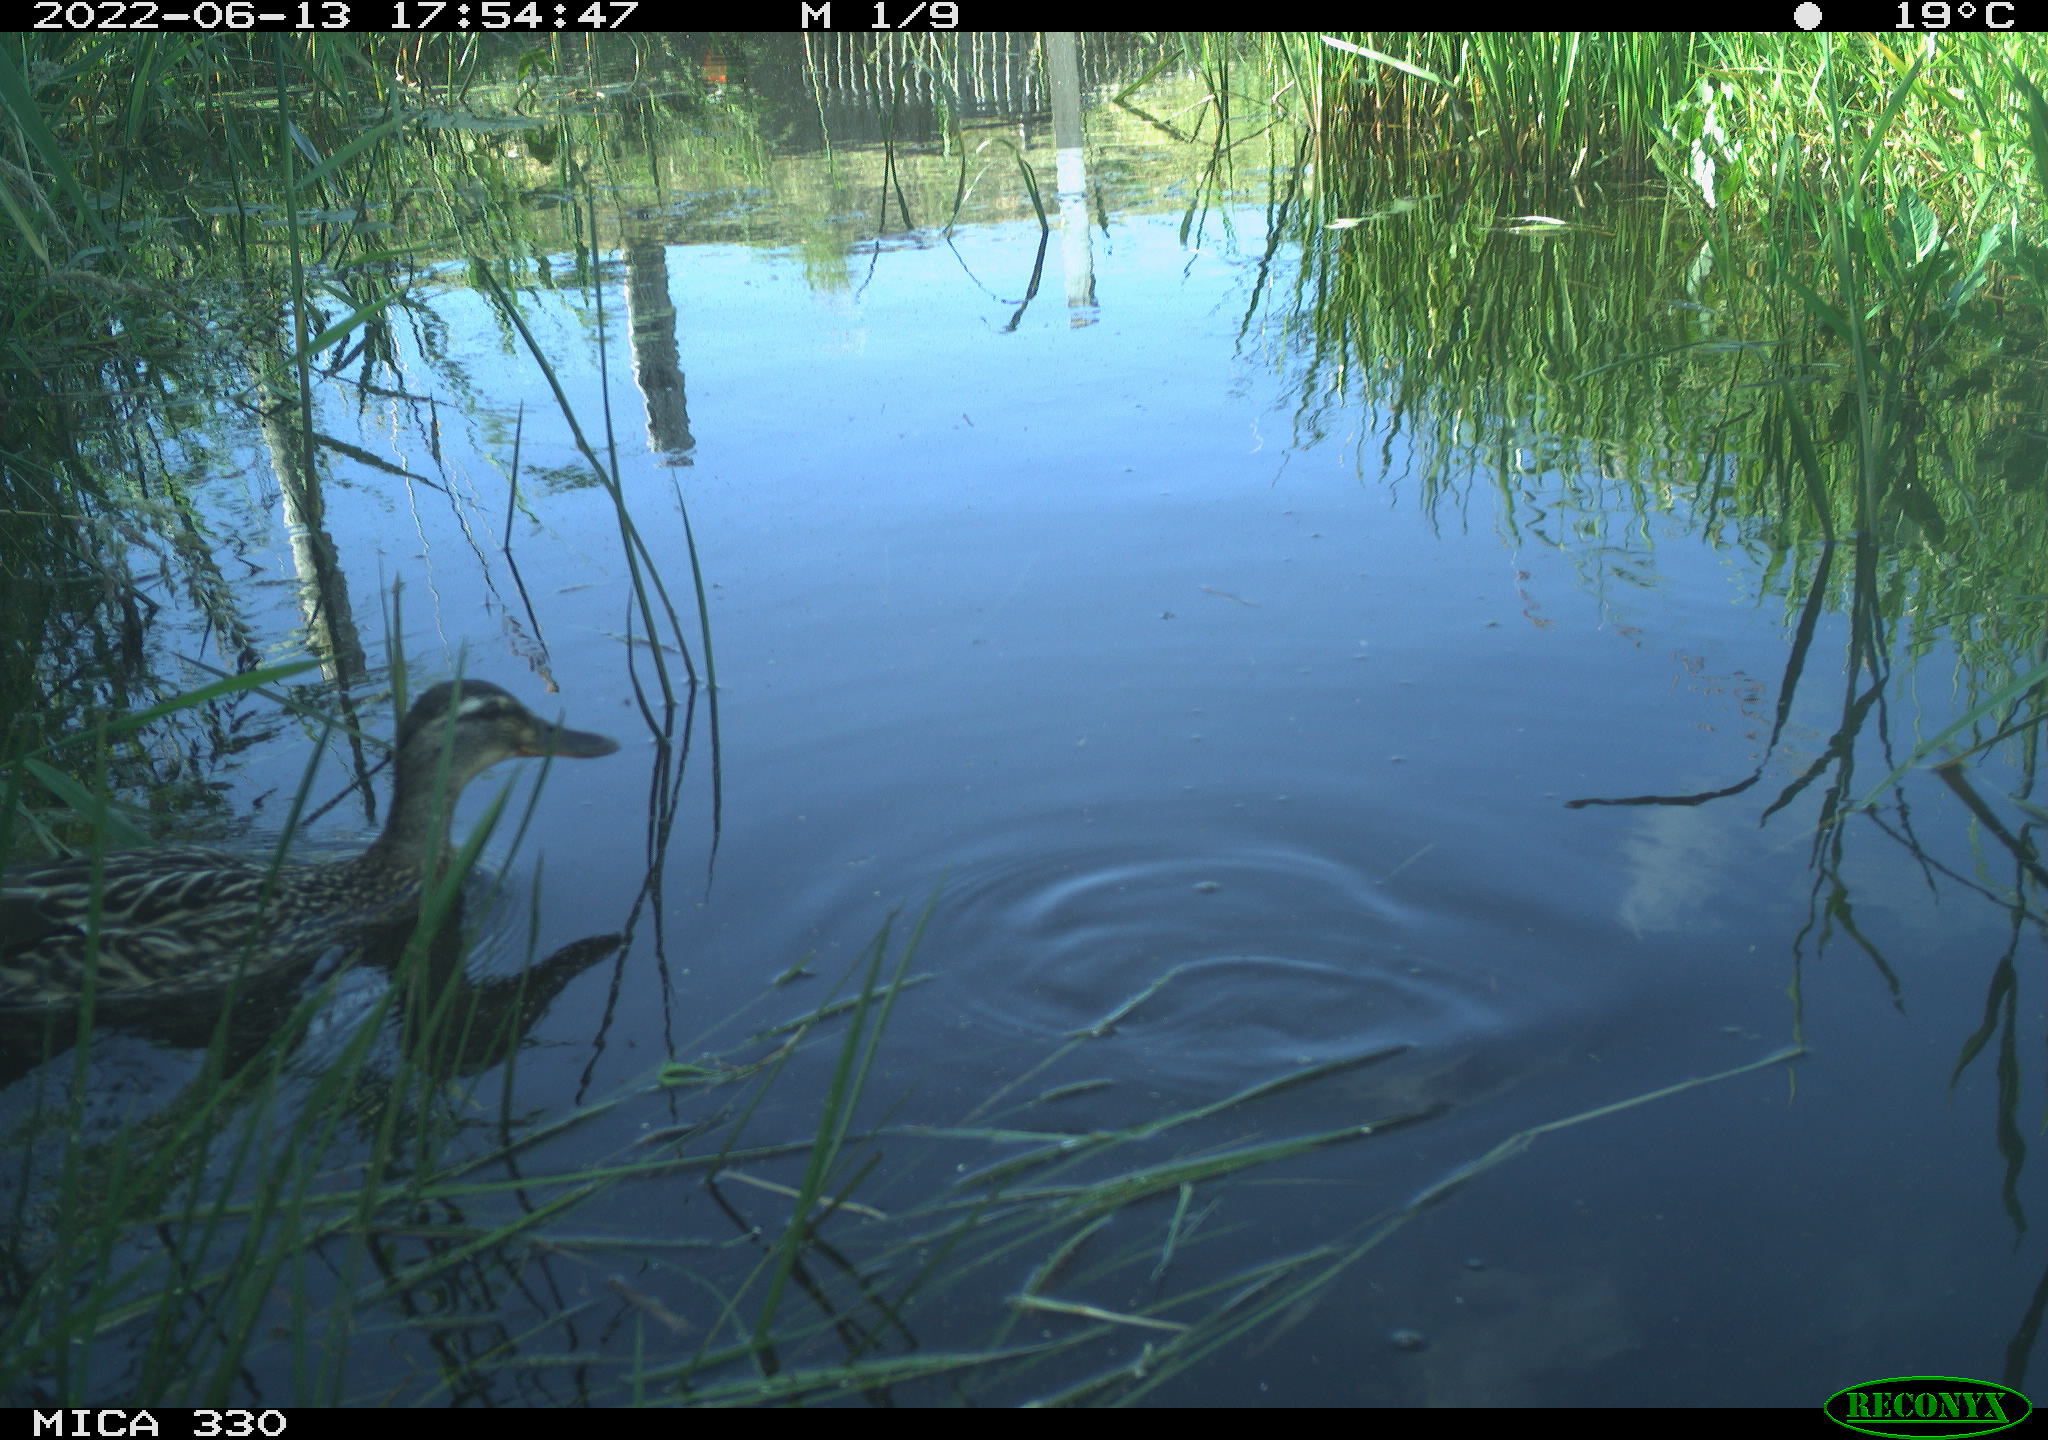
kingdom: Animalia
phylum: Chordata
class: Aves
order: Anseriformes
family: Anatidae
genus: Mareca
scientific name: Mareca strepera
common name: Gadwall
